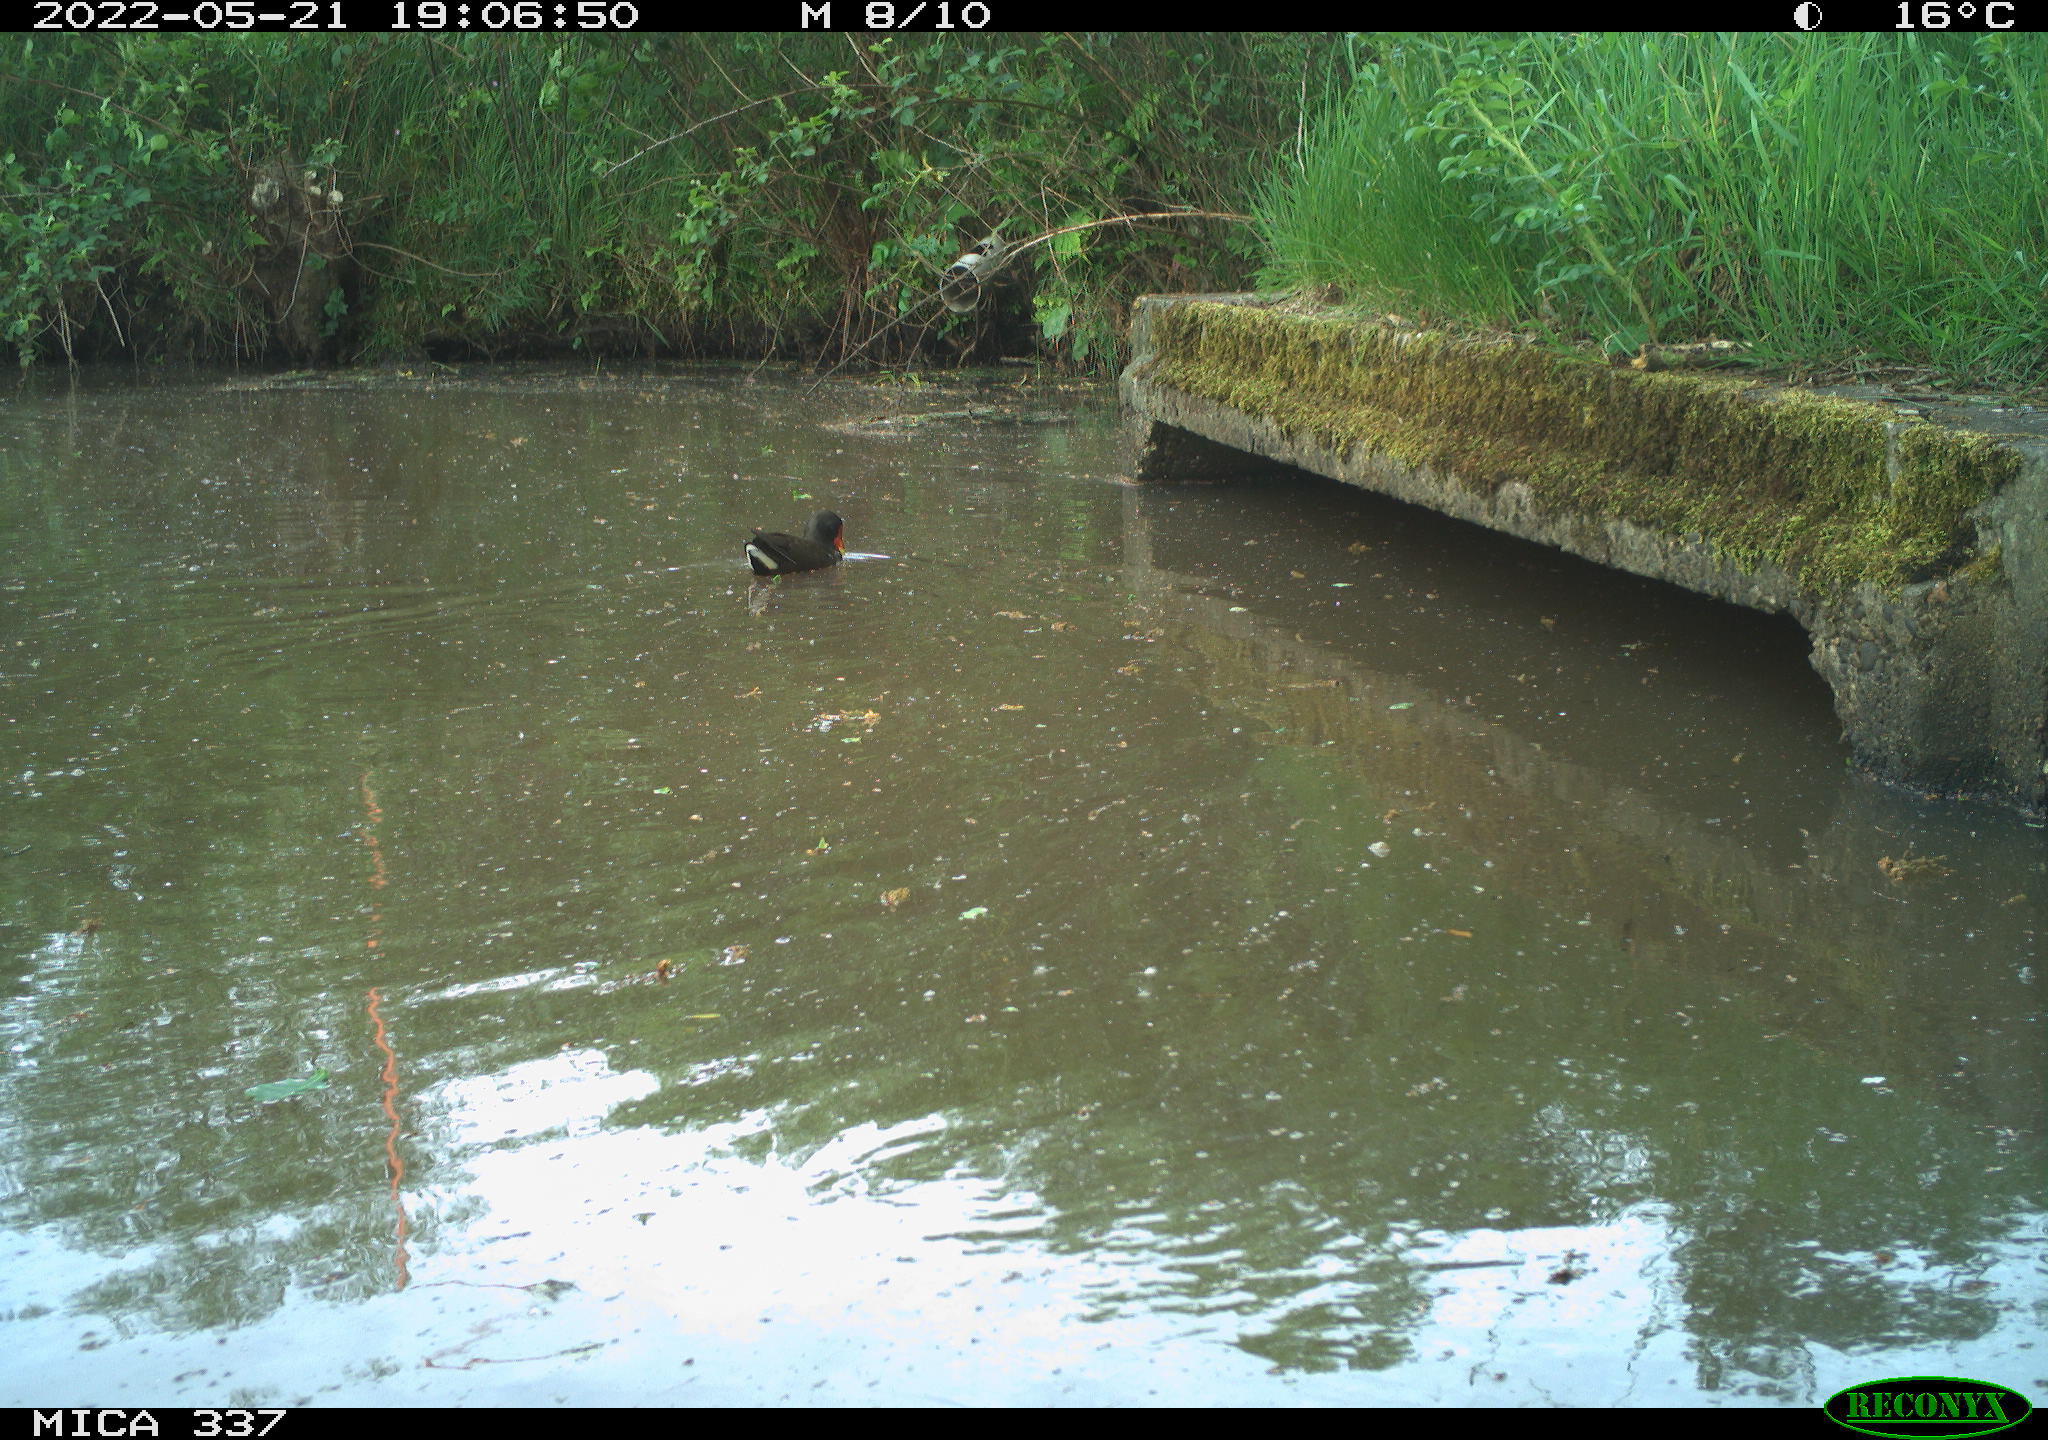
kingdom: Animalia
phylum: Chordata
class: Aves
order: Gruiformes
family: Rallidae
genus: Gallinula
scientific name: Gallinula chloropus
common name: Common moorhen
